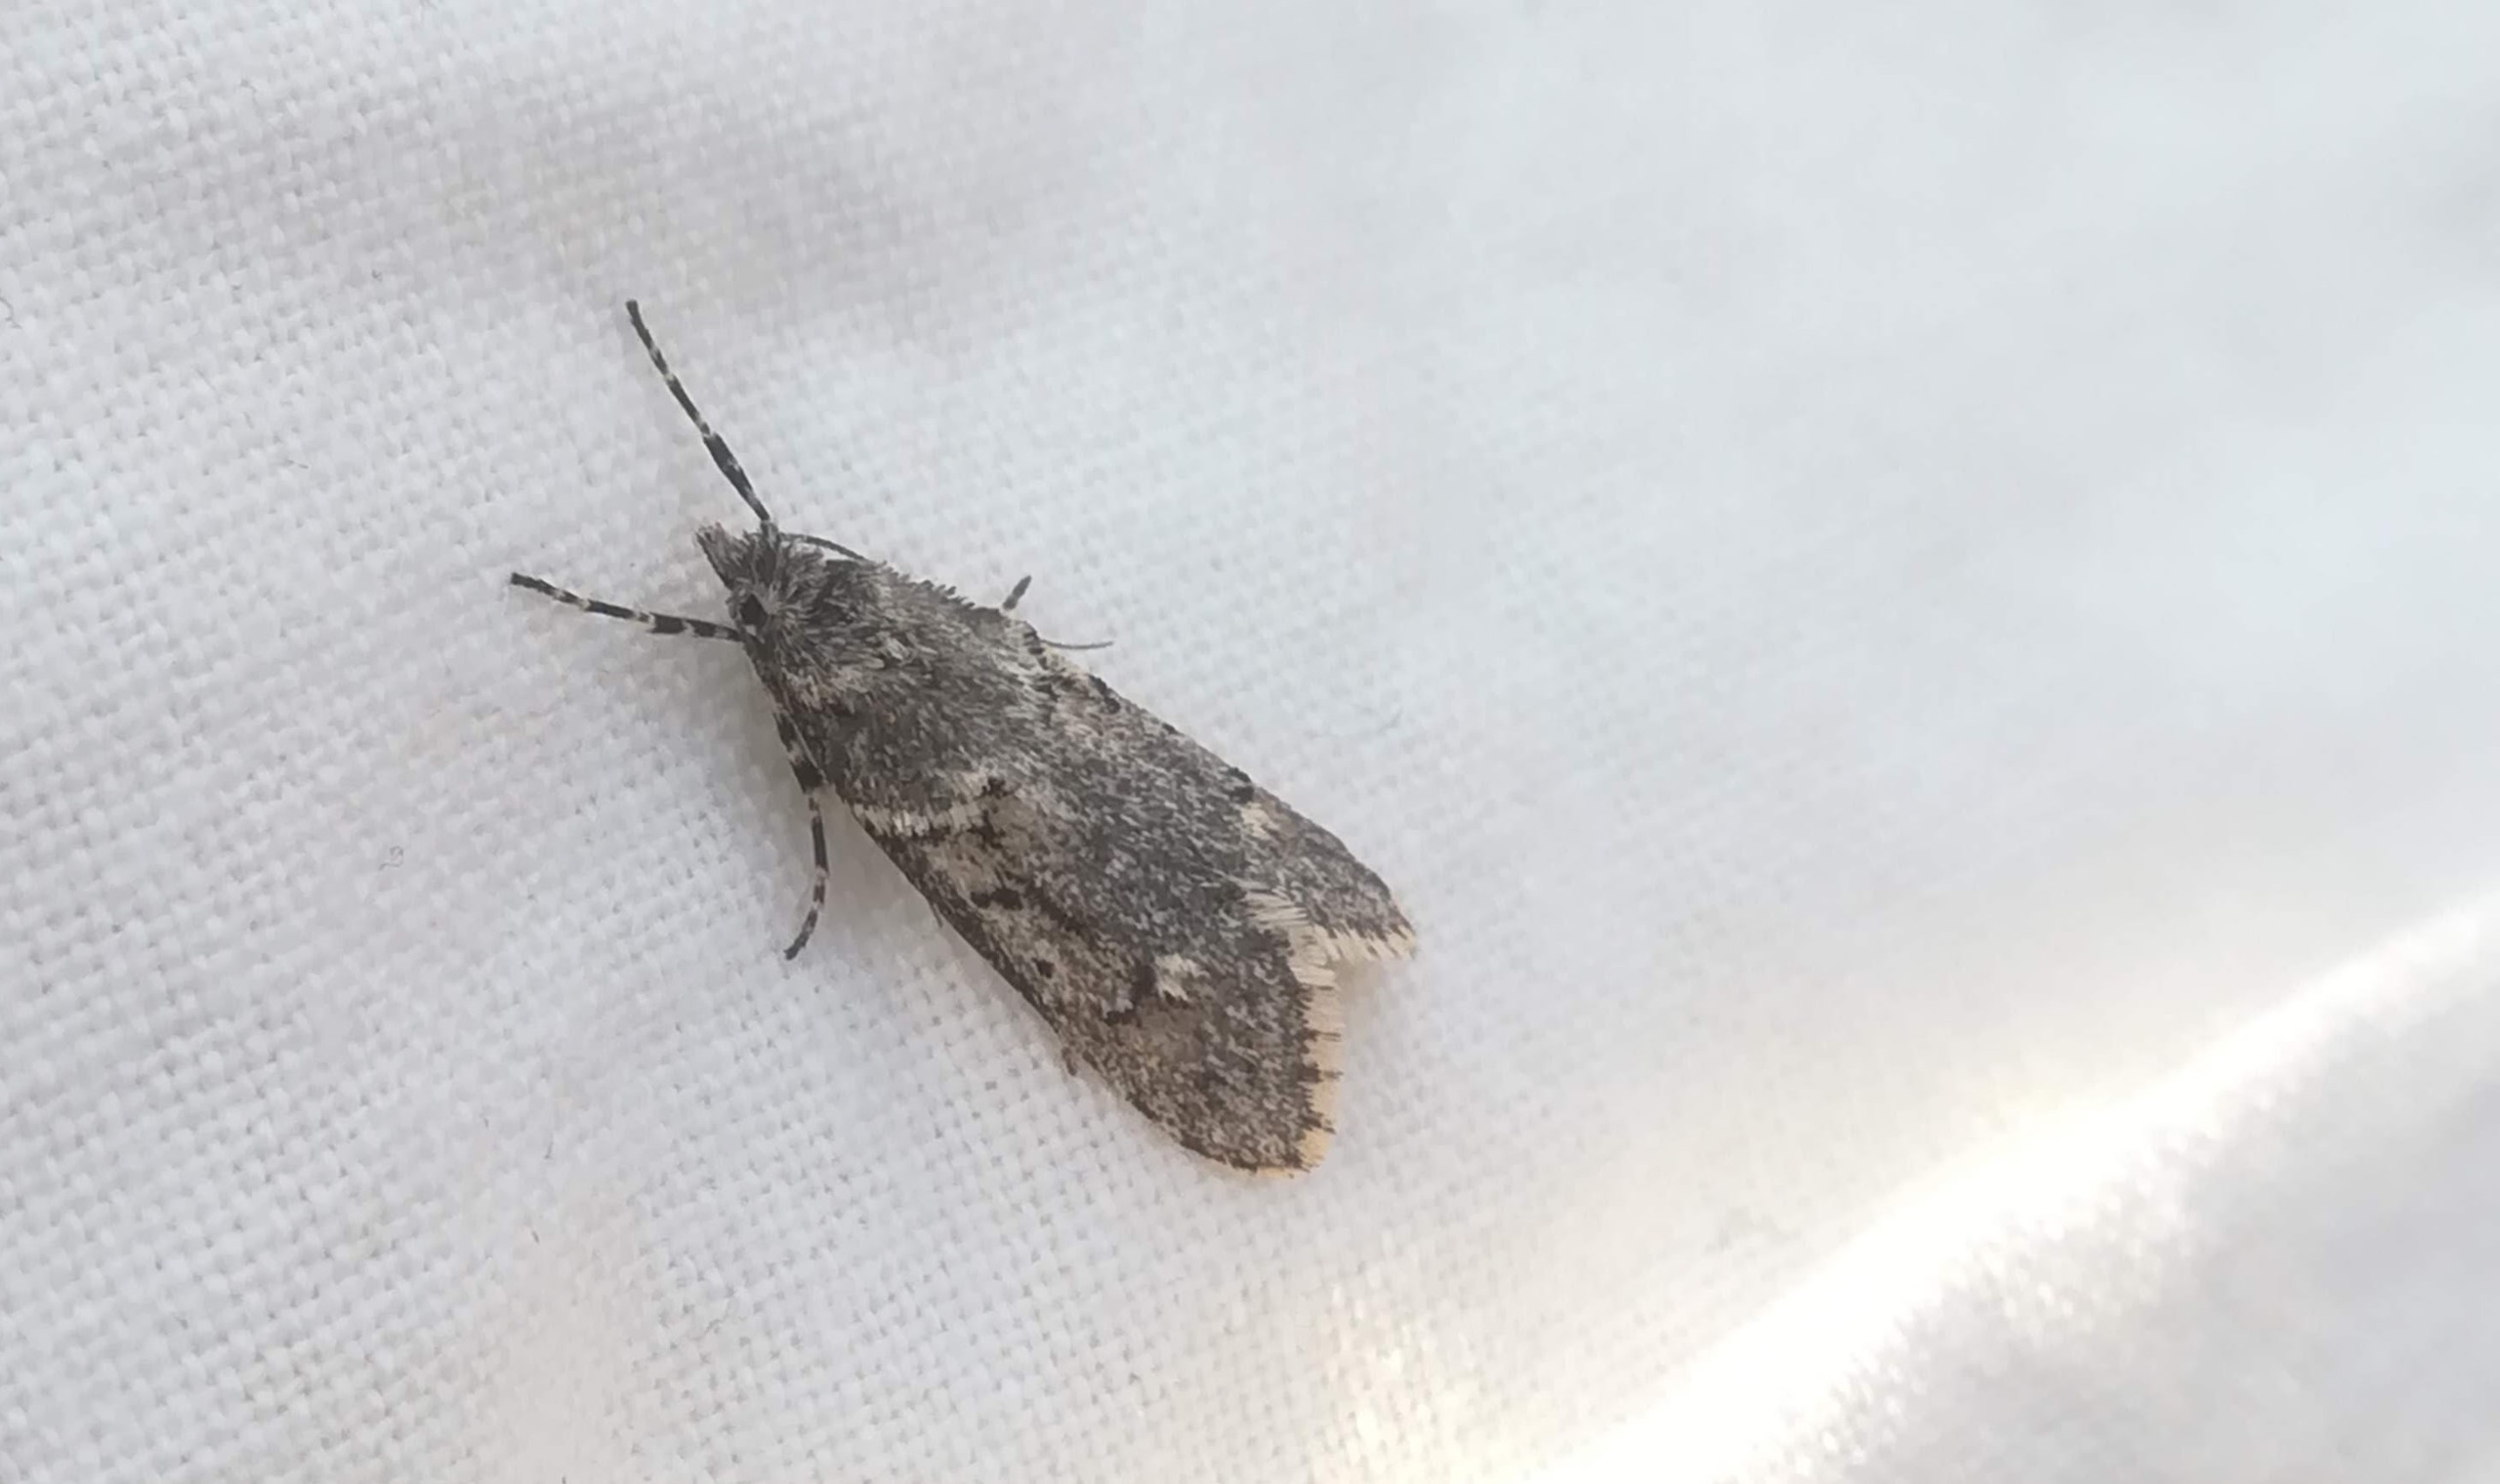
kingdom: Animalia
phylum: Arthropoda
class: Insecta
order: Lepidoptera
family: Lypusidae
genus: Diurnea
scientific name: Diurnea fagella
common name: Bøgeprydvinge
